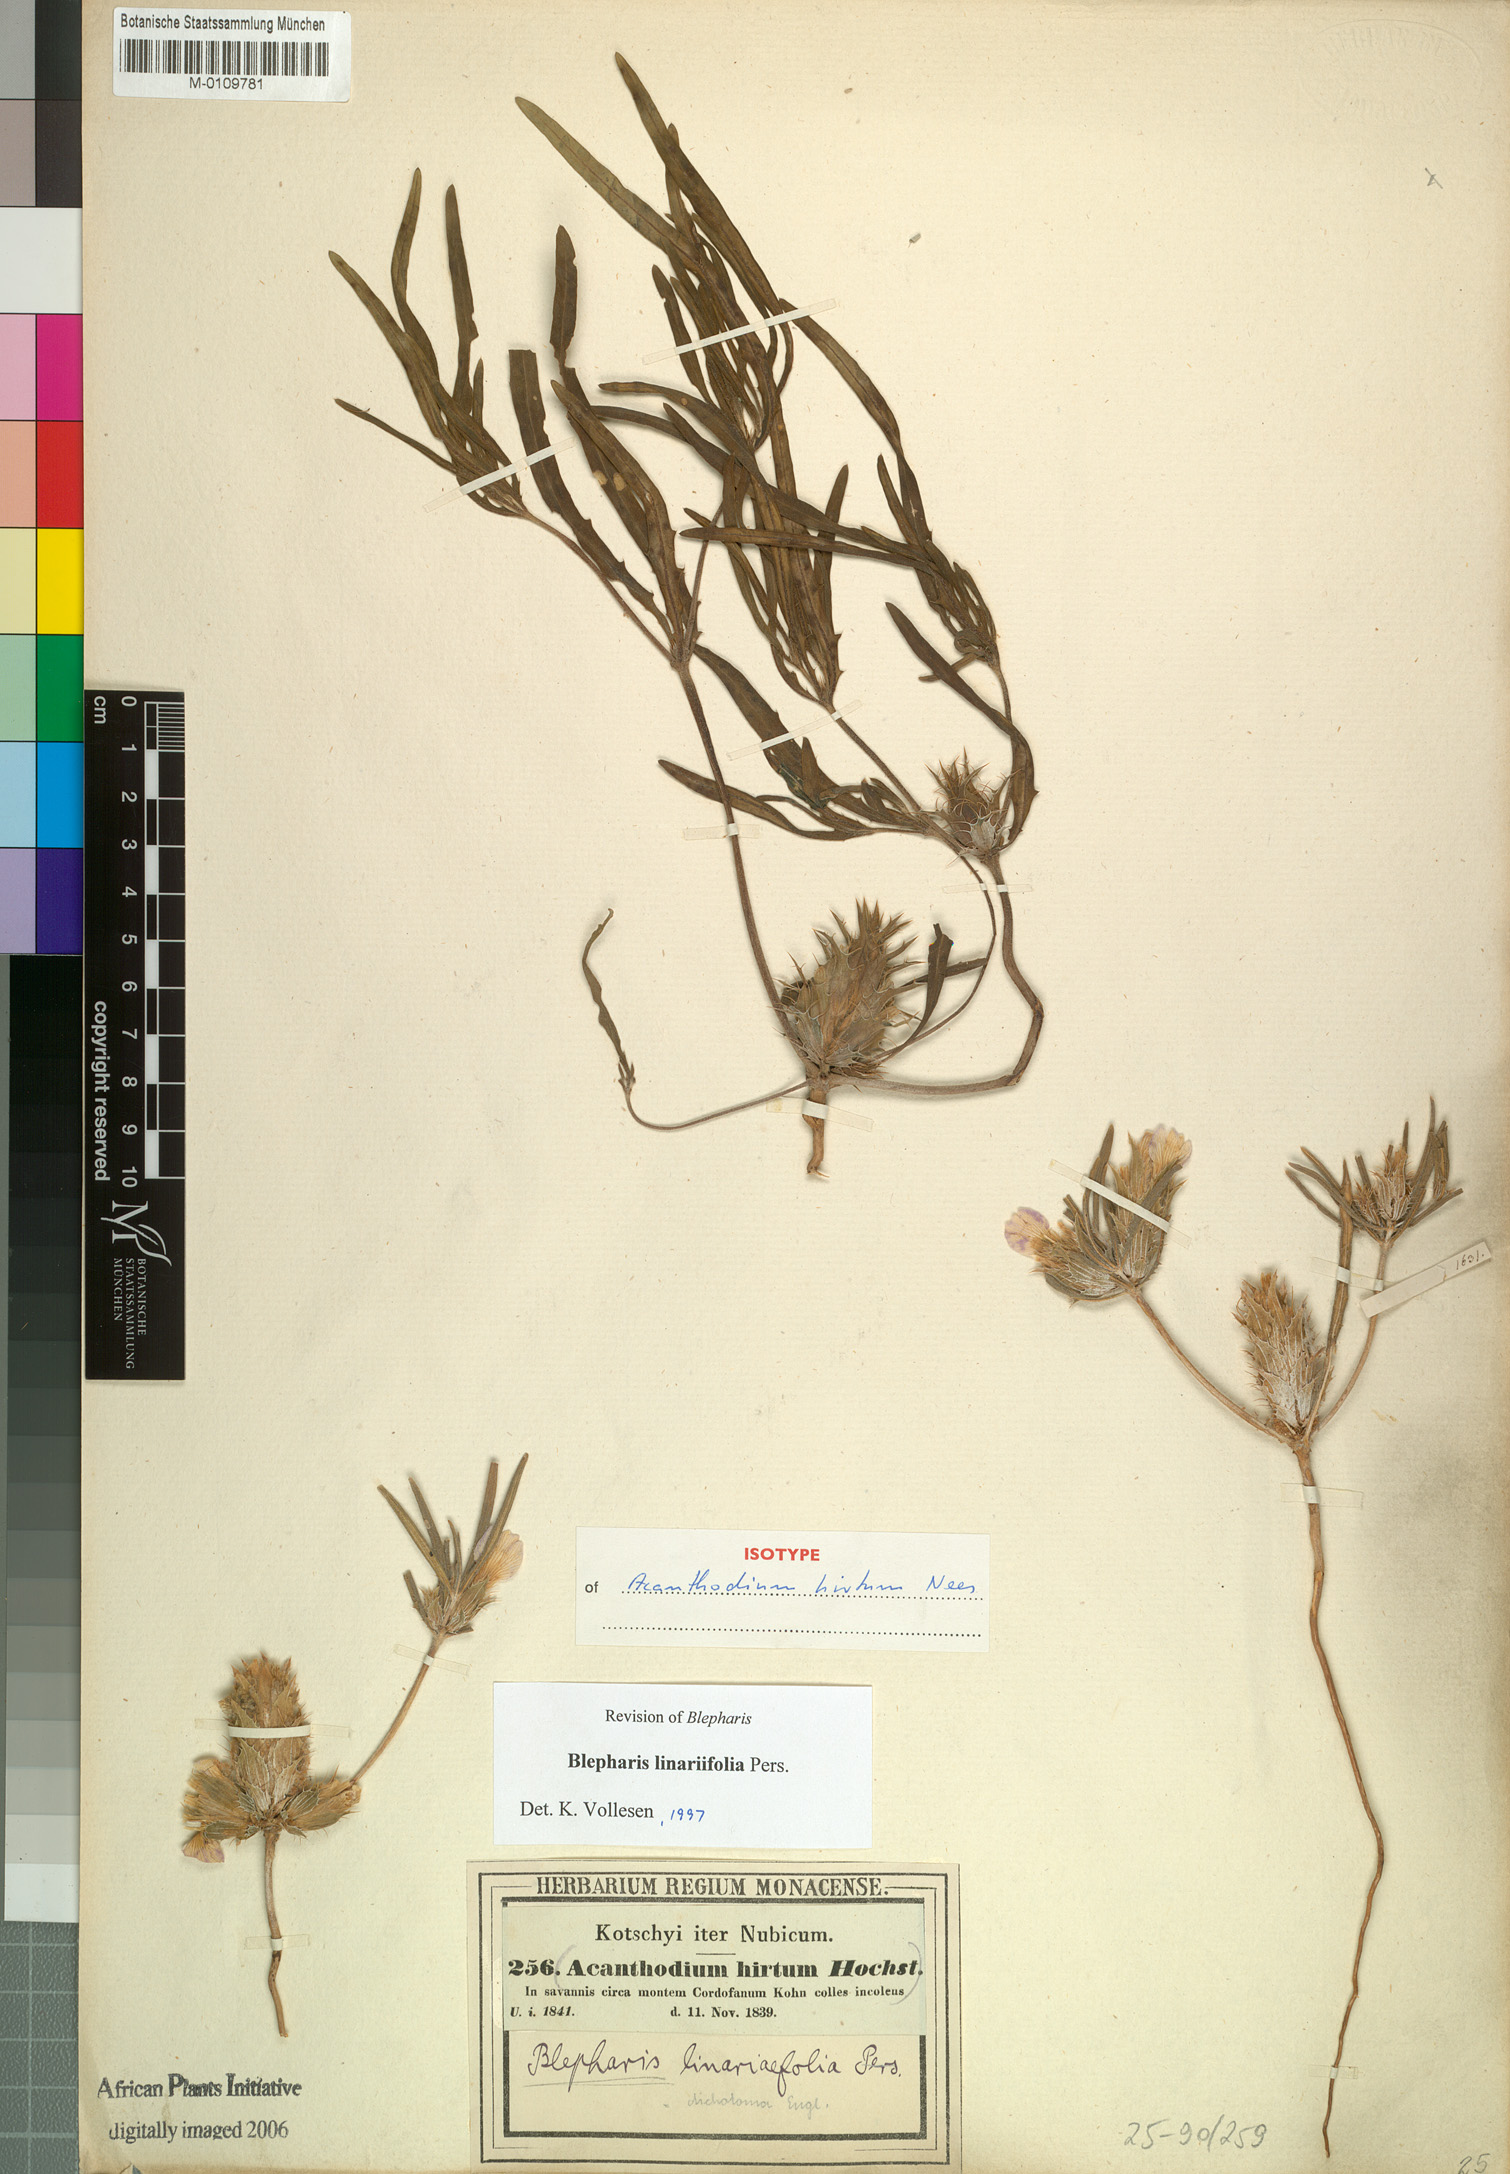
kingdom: Plantae
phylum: Tracheophyta
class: Magnoliopsida
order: Lamiales
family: Acanthaceae
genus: Blepharis
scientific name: Blepharis linearifolia
